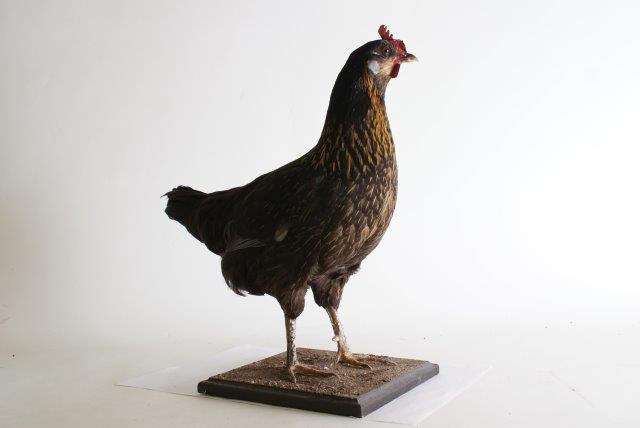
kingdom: Animalia
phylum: Chordata
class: Aves
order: Galliformes
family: Phasianidae
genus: Gallus
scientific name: Gallus gallus
